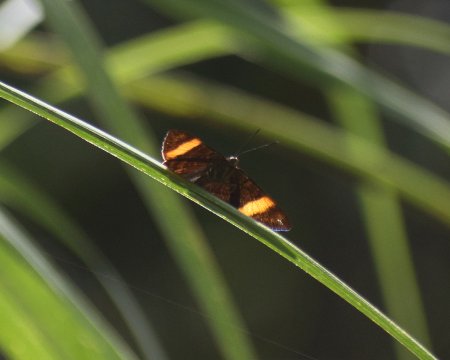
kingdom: Animalia
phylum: Arthropoda
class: Insecta
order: Lepidoptera
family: Lycaenidae
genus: Emesis
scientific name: Emesis cypria
